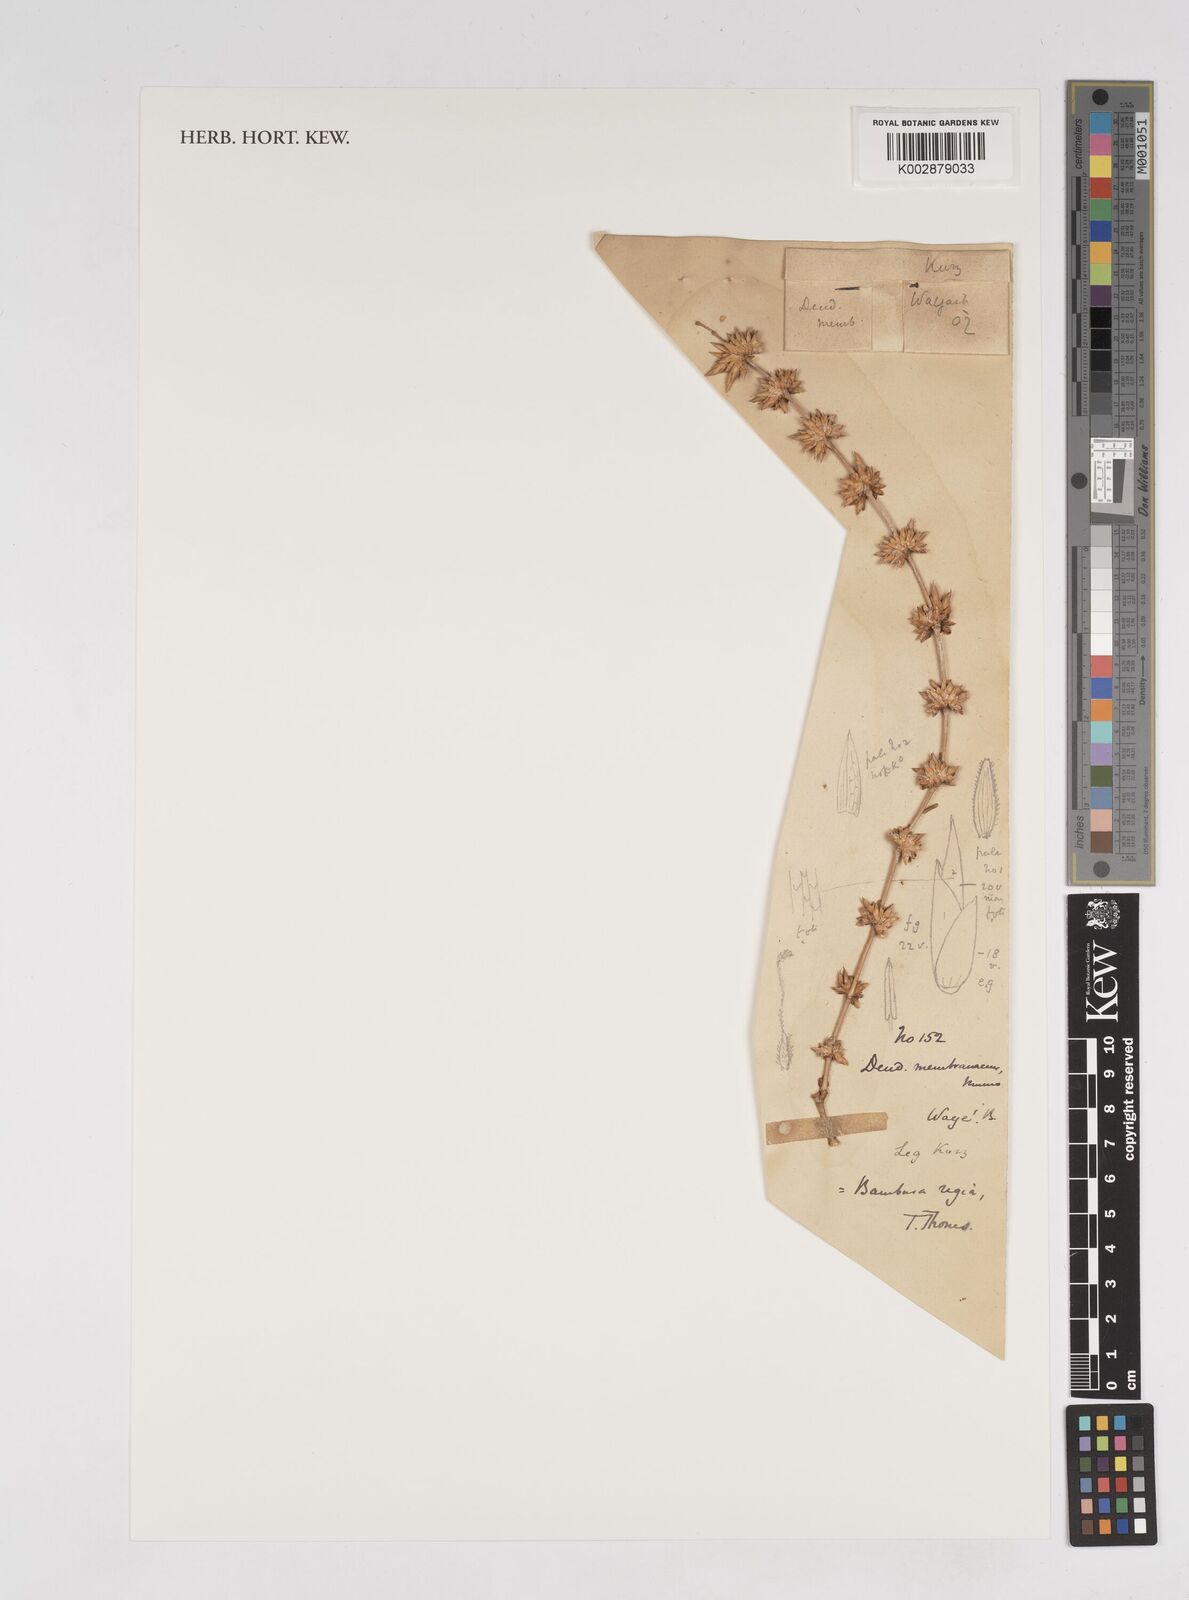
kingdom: Plantae
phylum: Tracheophyta
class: Liliopsida
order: Poales
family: Poaceae
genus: Dendrocalamus
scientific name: Dendrocalamus membranaceus
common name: White bamboo
